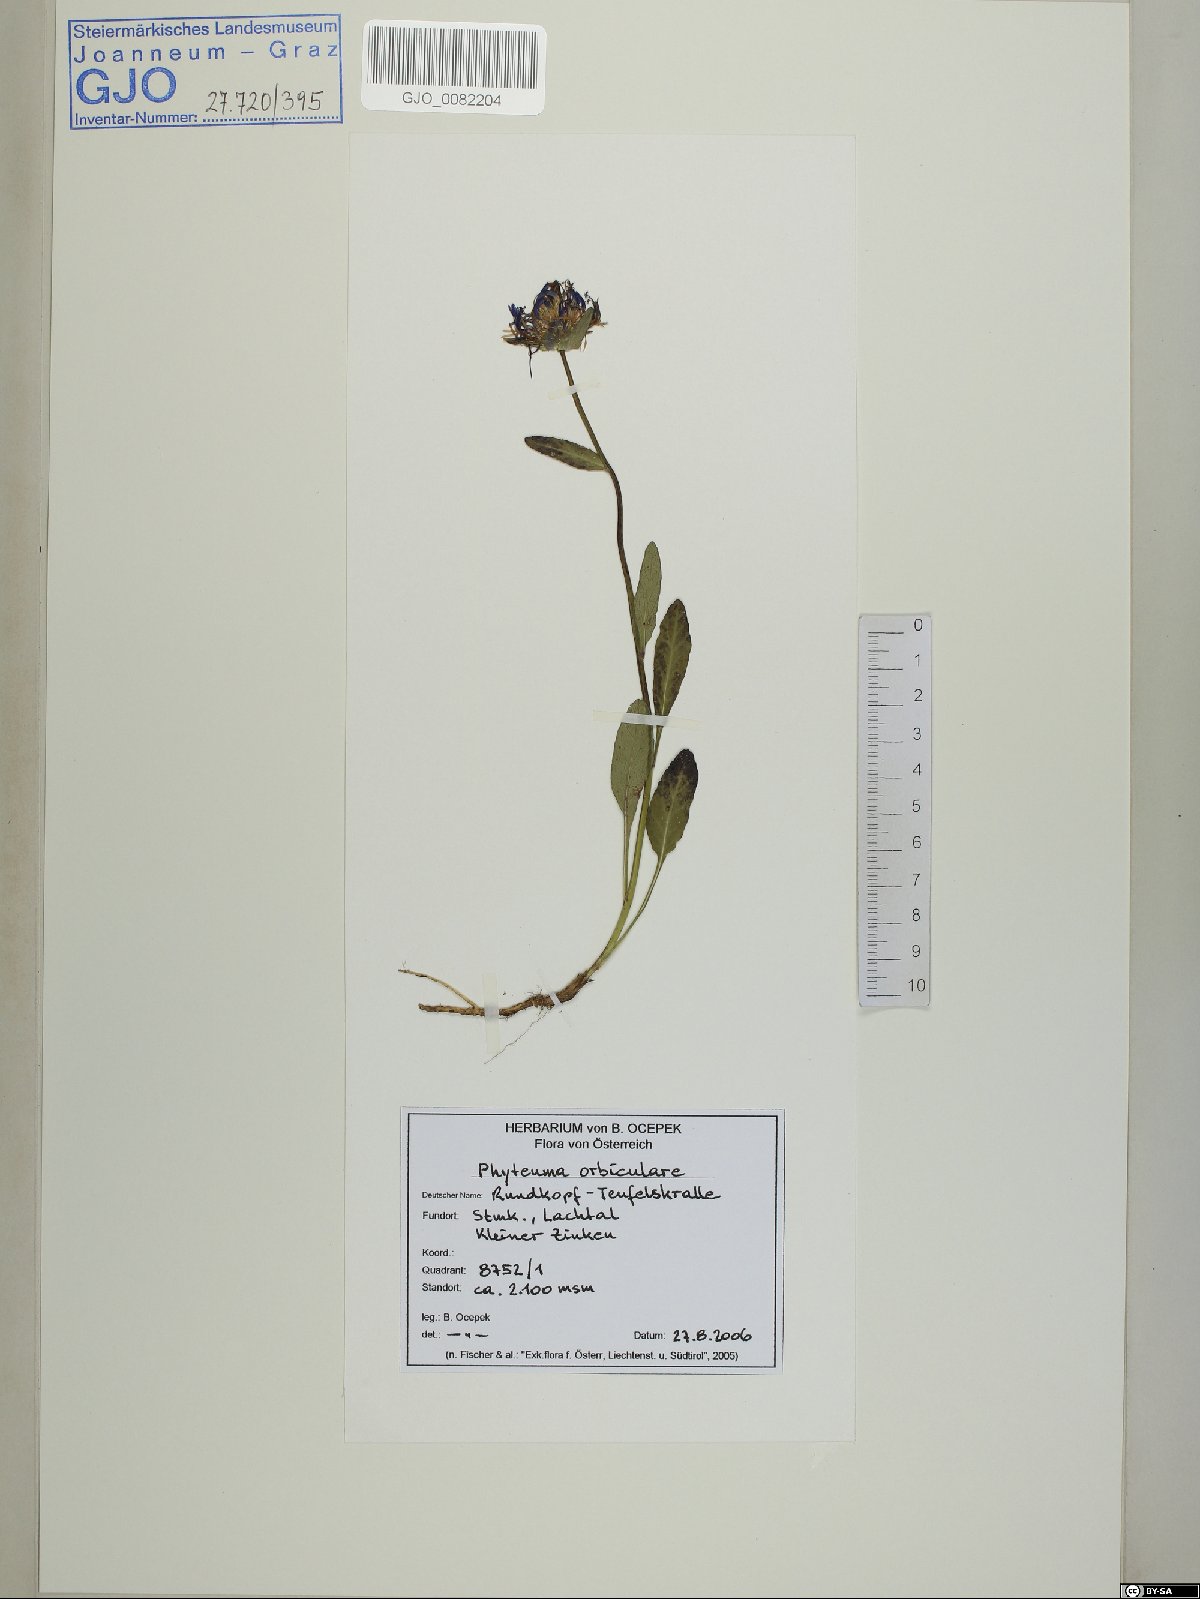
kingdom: Plantae
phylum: Tracheophyta
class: Magnoliopsida
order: Asterales
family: Campanulaceae
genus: Phyteuma
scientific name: Phyteuma orbiculare
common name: Round-headed rampion
